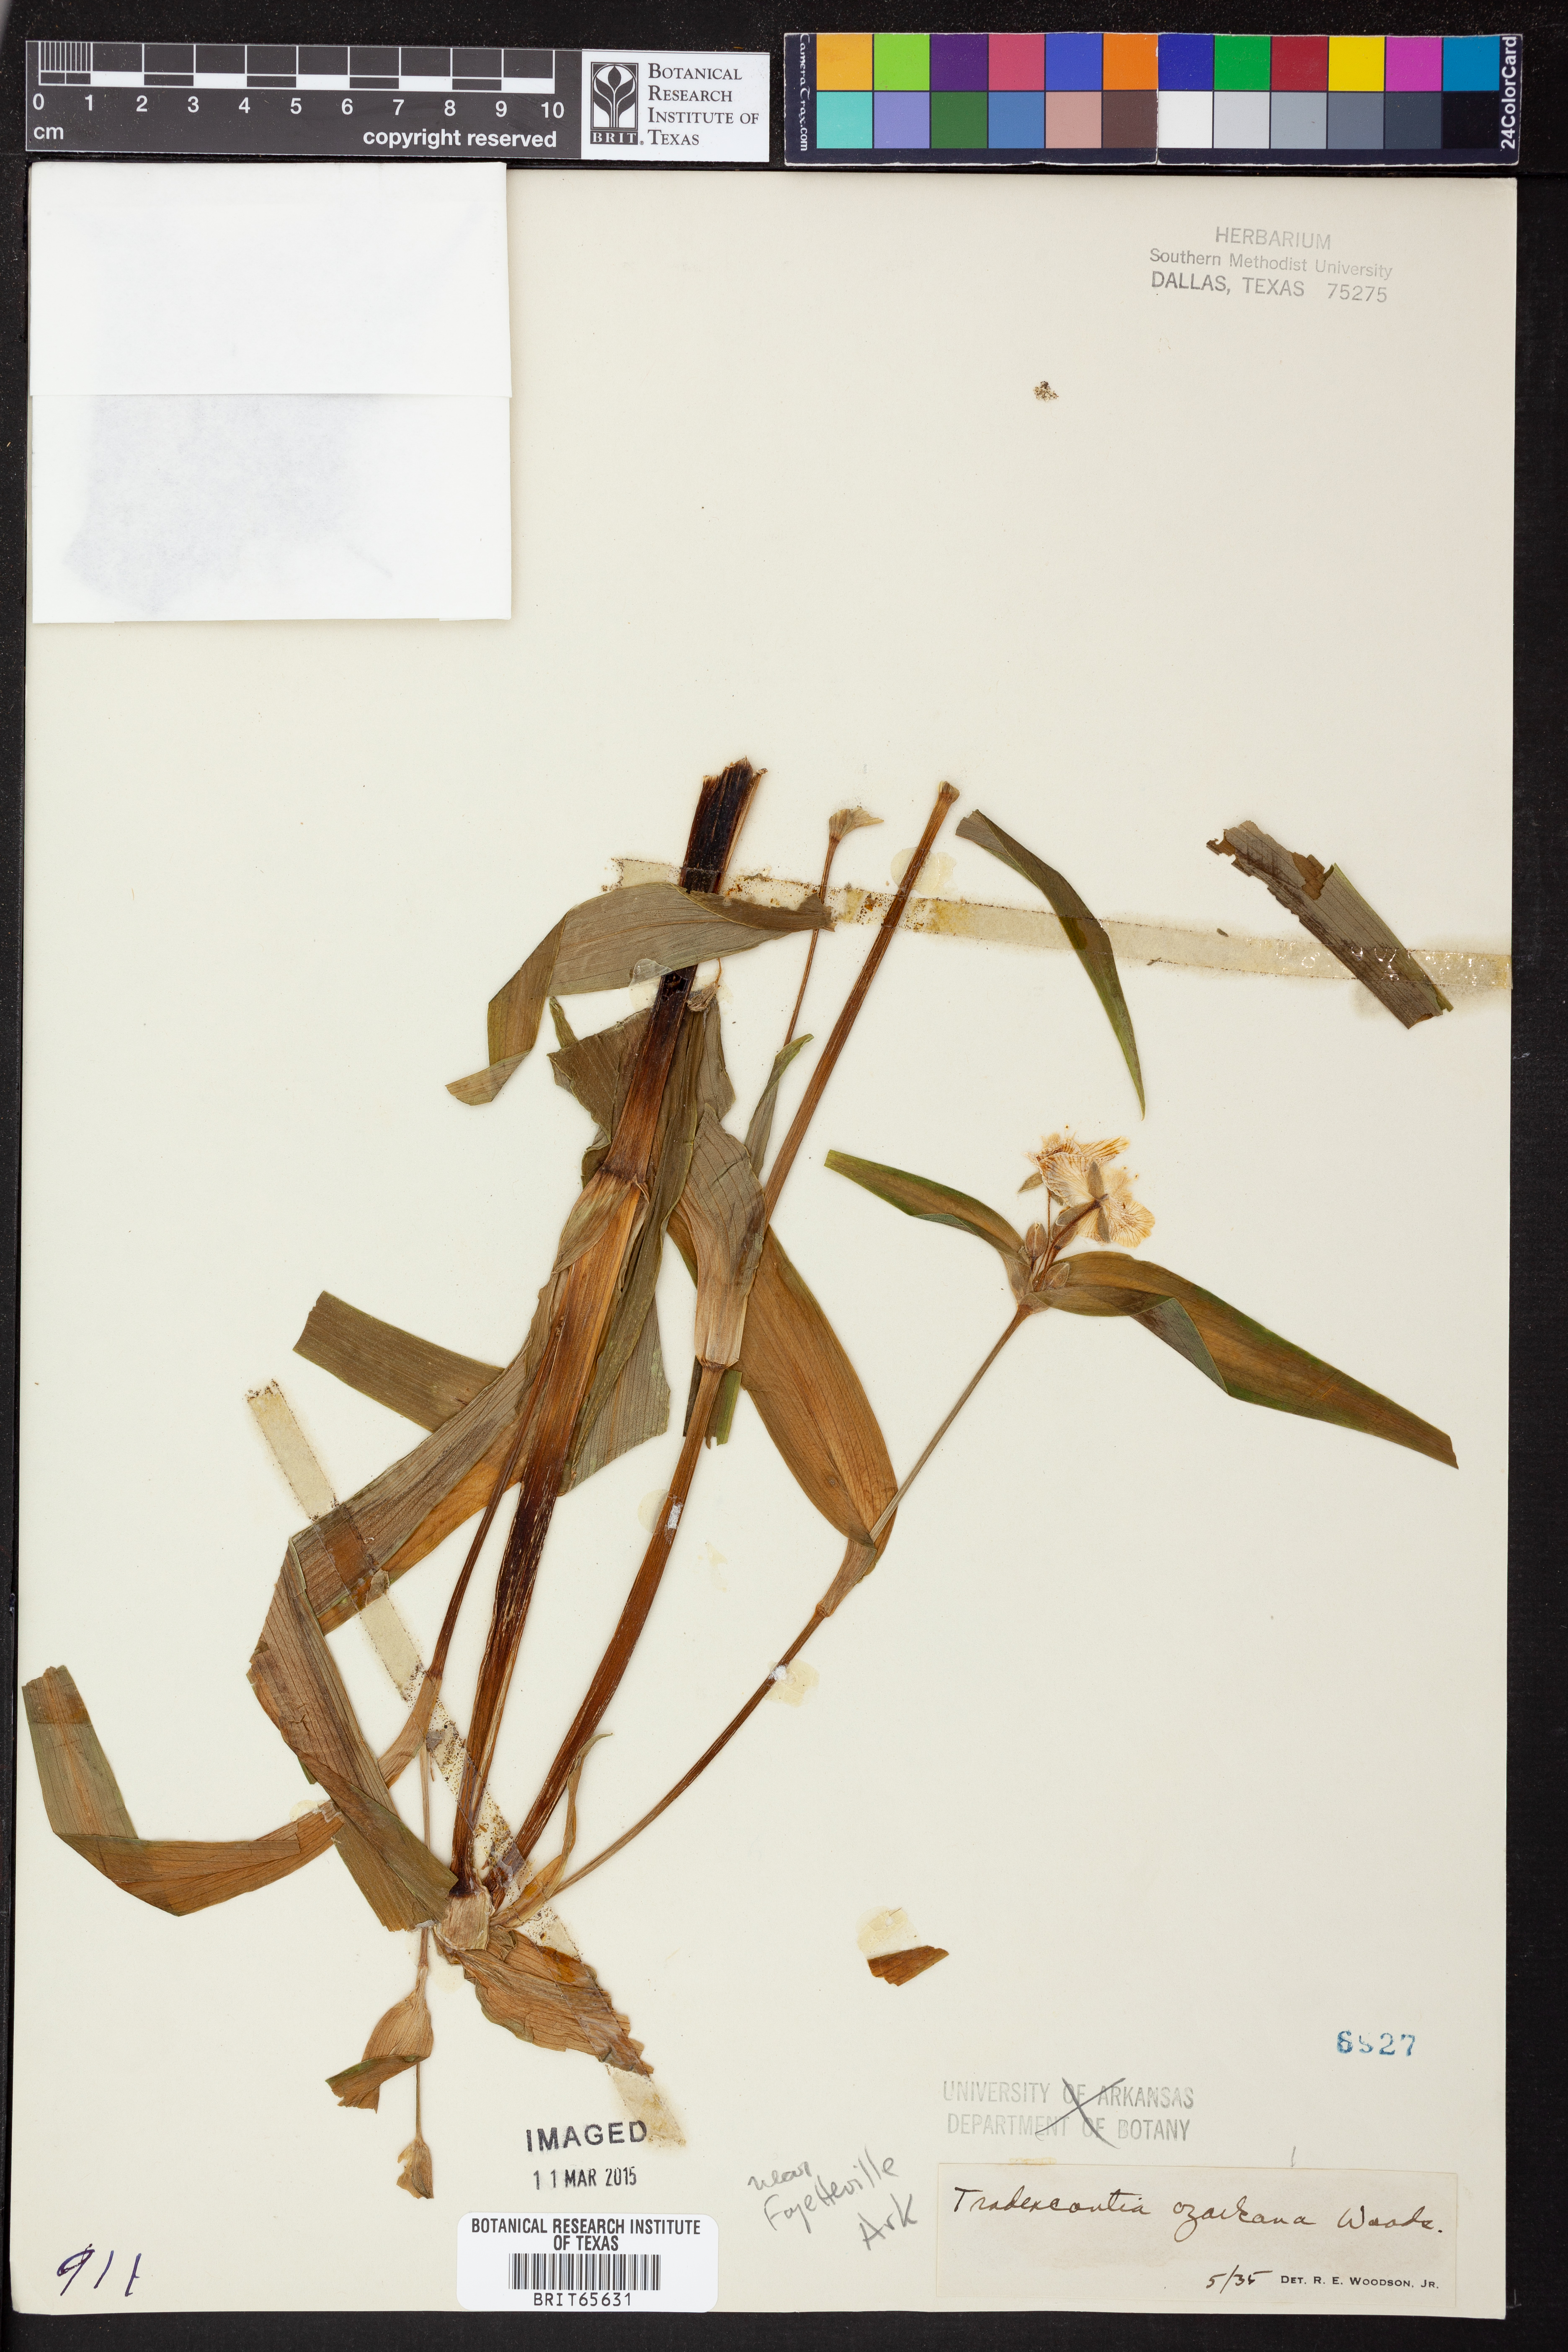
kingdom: Plantae
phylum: Tracheophyta
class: Liliopsida
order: Commelinales
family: Commelinaceae
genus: Tradescantia
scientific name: Tradescantia ozarkana
